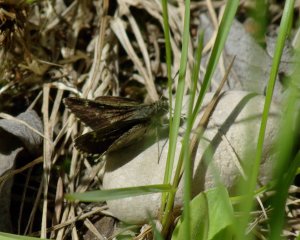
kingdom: Animalia
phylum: Arthropoda
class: Insecta
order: Lepidoptera
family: Hesperiidae
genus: Mastor
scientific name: Mastor hegon
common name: Pepper and Salt Skipper
